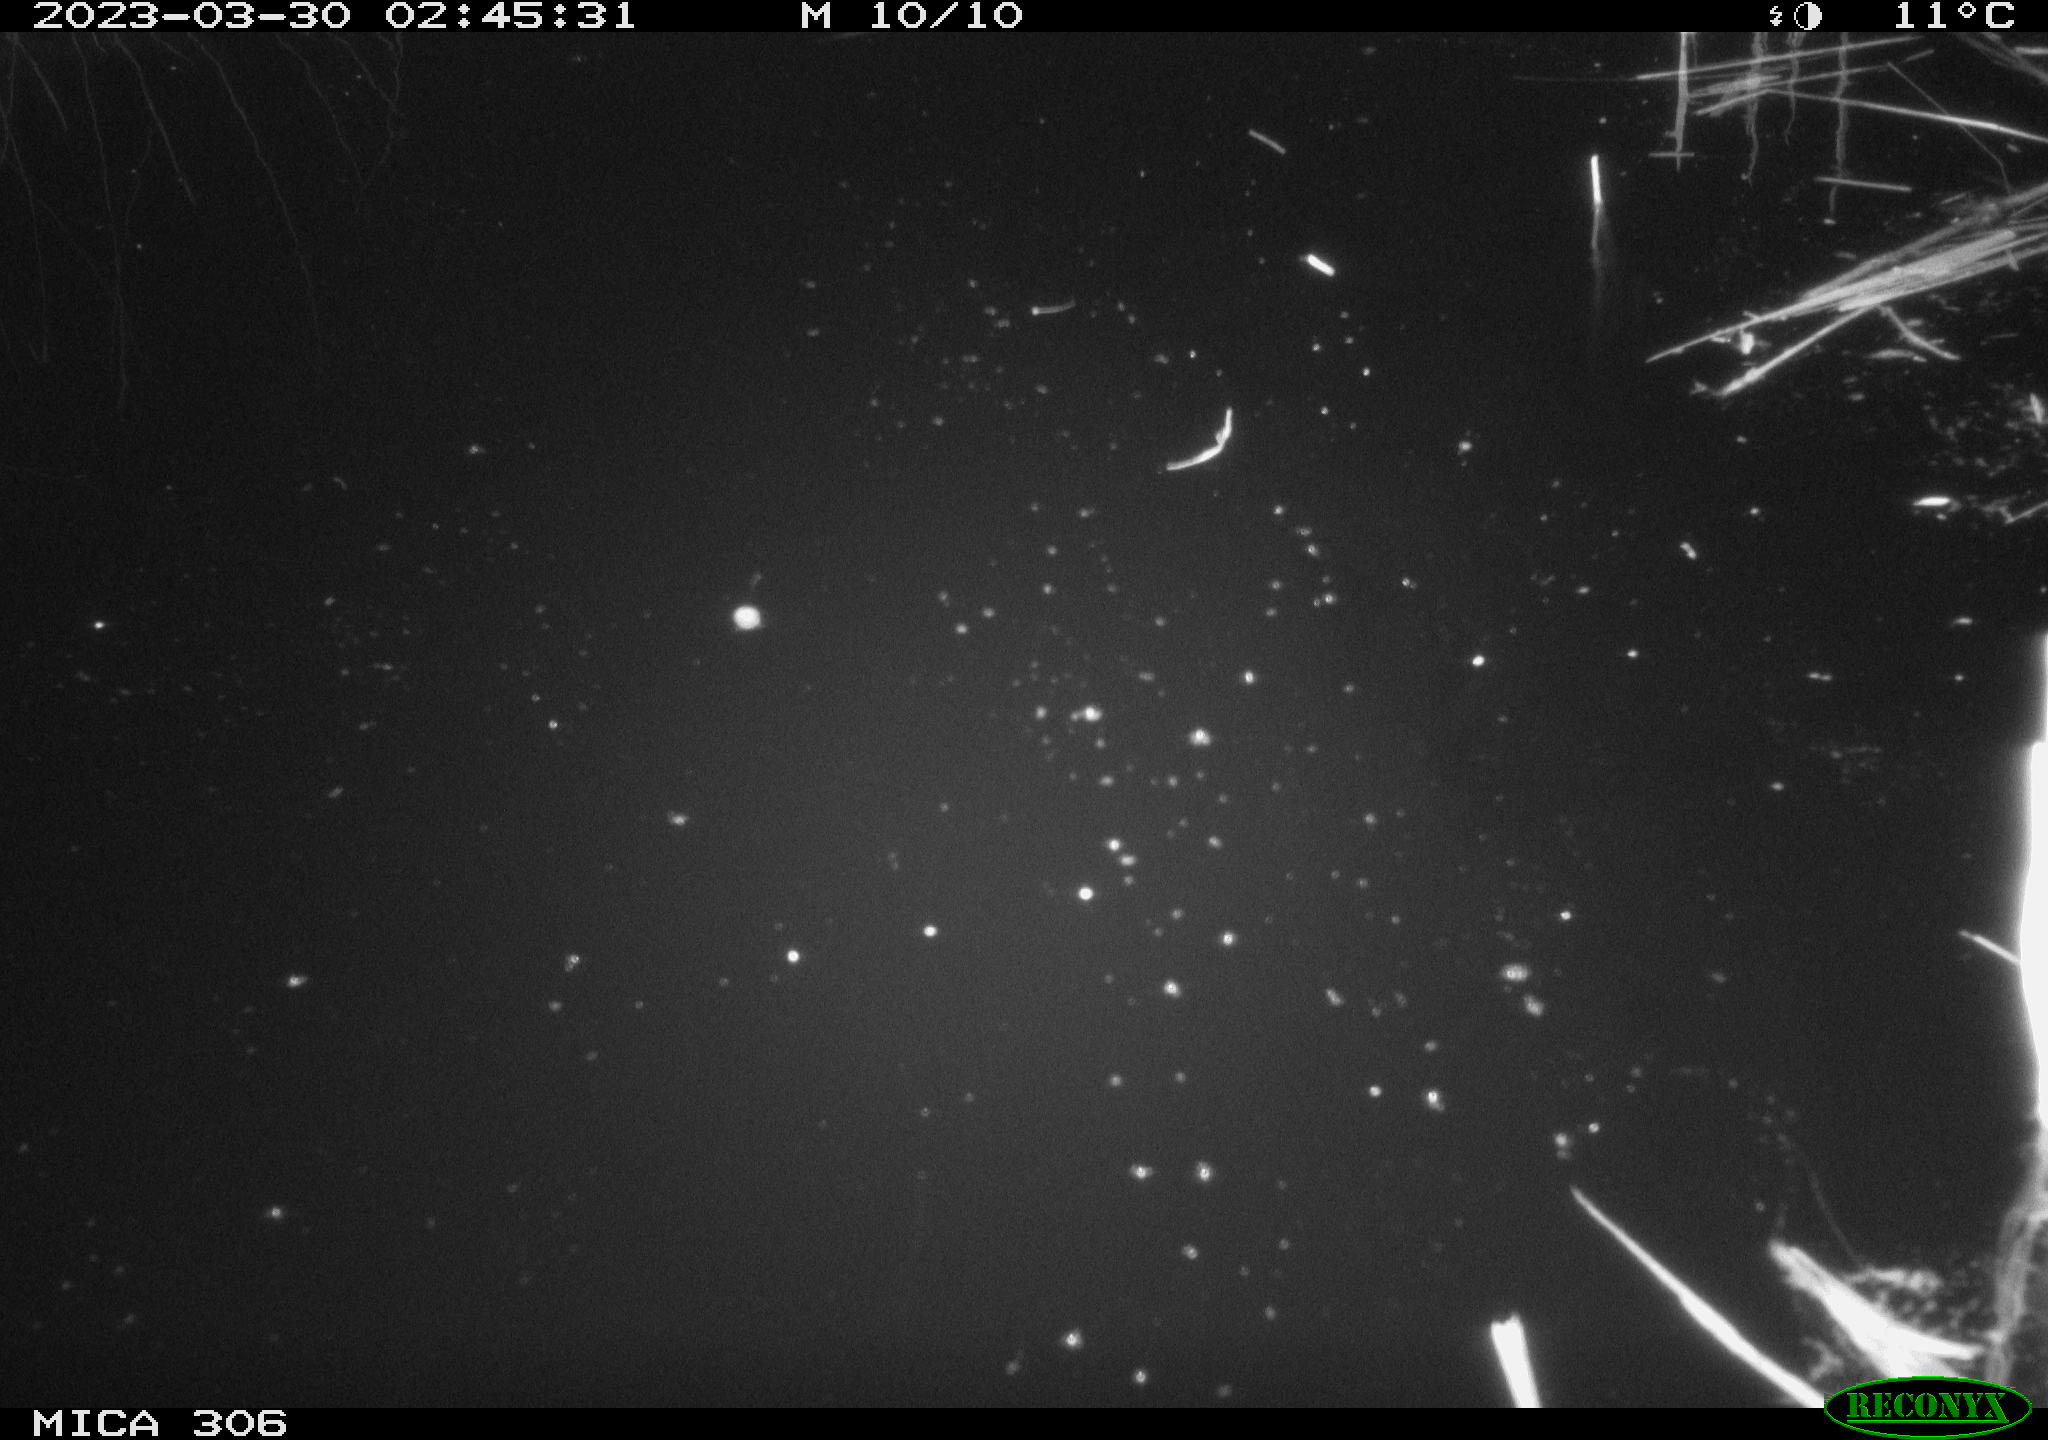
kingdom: Animalia
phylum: Chordata
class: Aves
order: Gruiformes
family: Rallidae
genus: Fulica
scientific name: Fulica atra
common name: Eurasian coot
